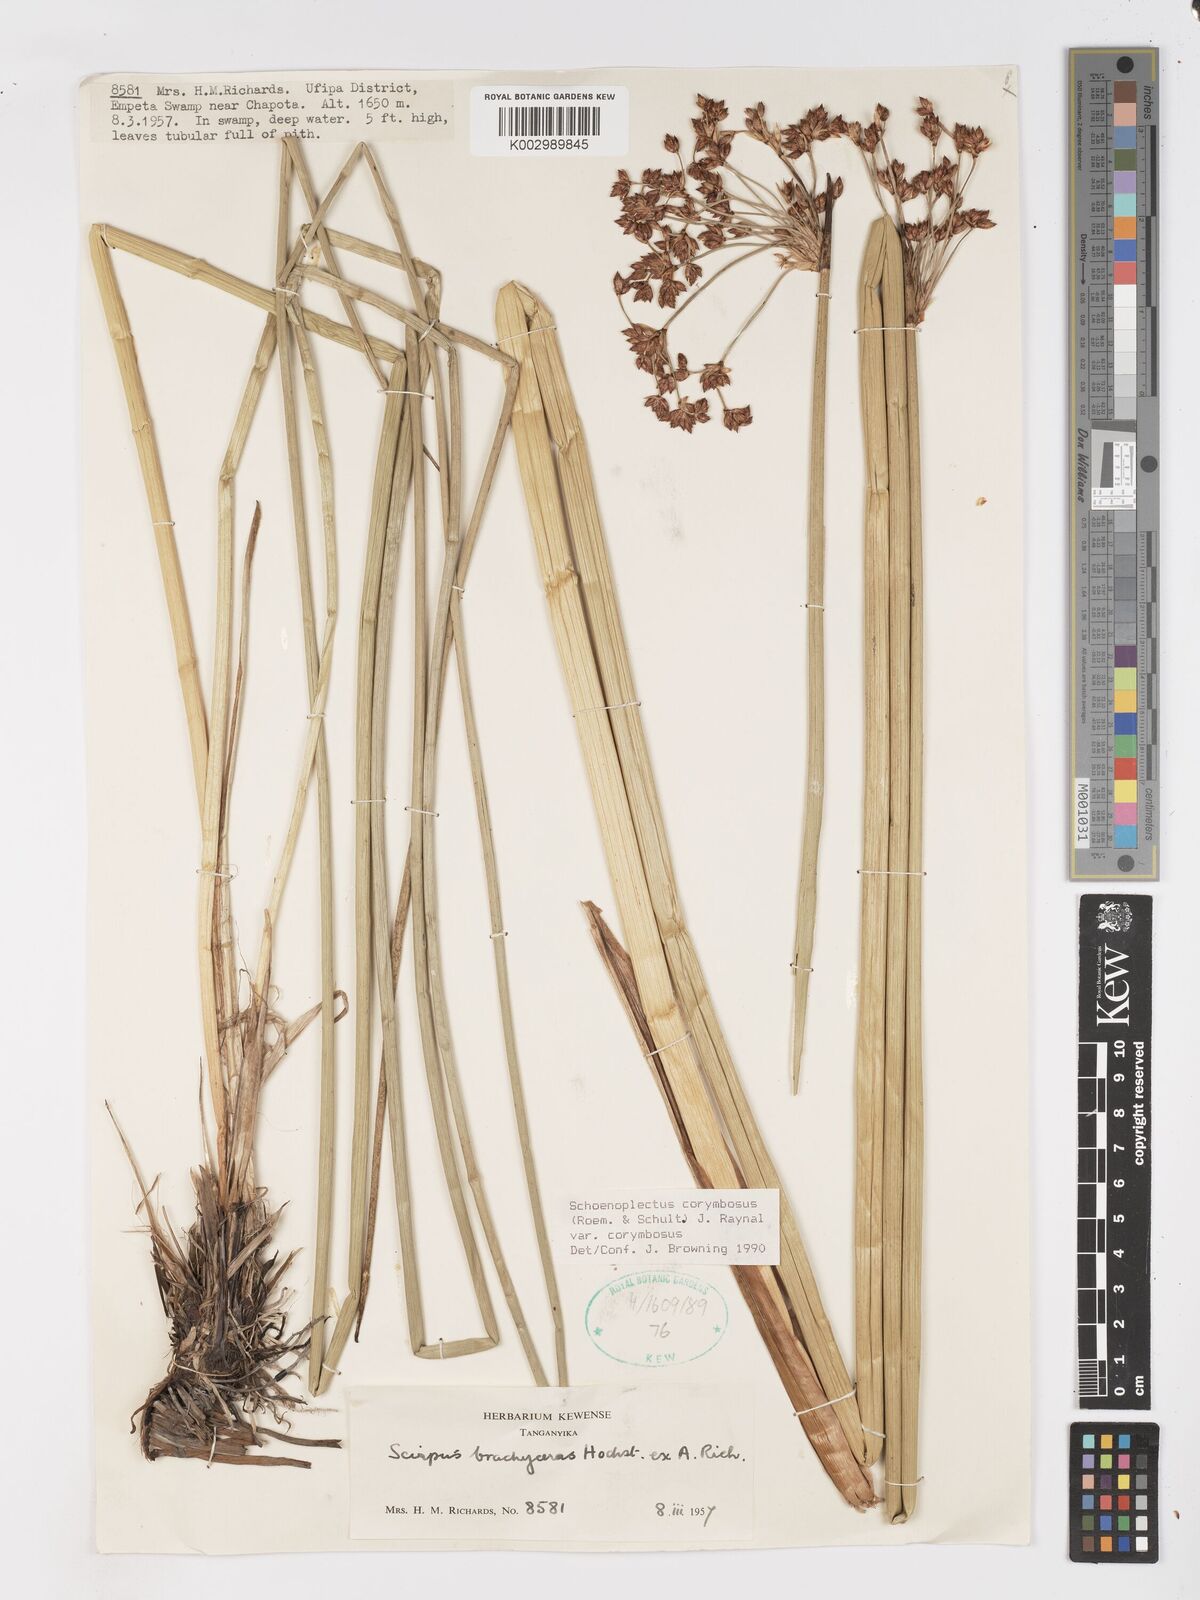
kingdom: Plantae
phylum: Tracheophyta
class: Liliopsida
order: Poales
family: Cyperaceae
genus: Schoenoplectiella
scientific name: Schoenoplectiella corymbosa
